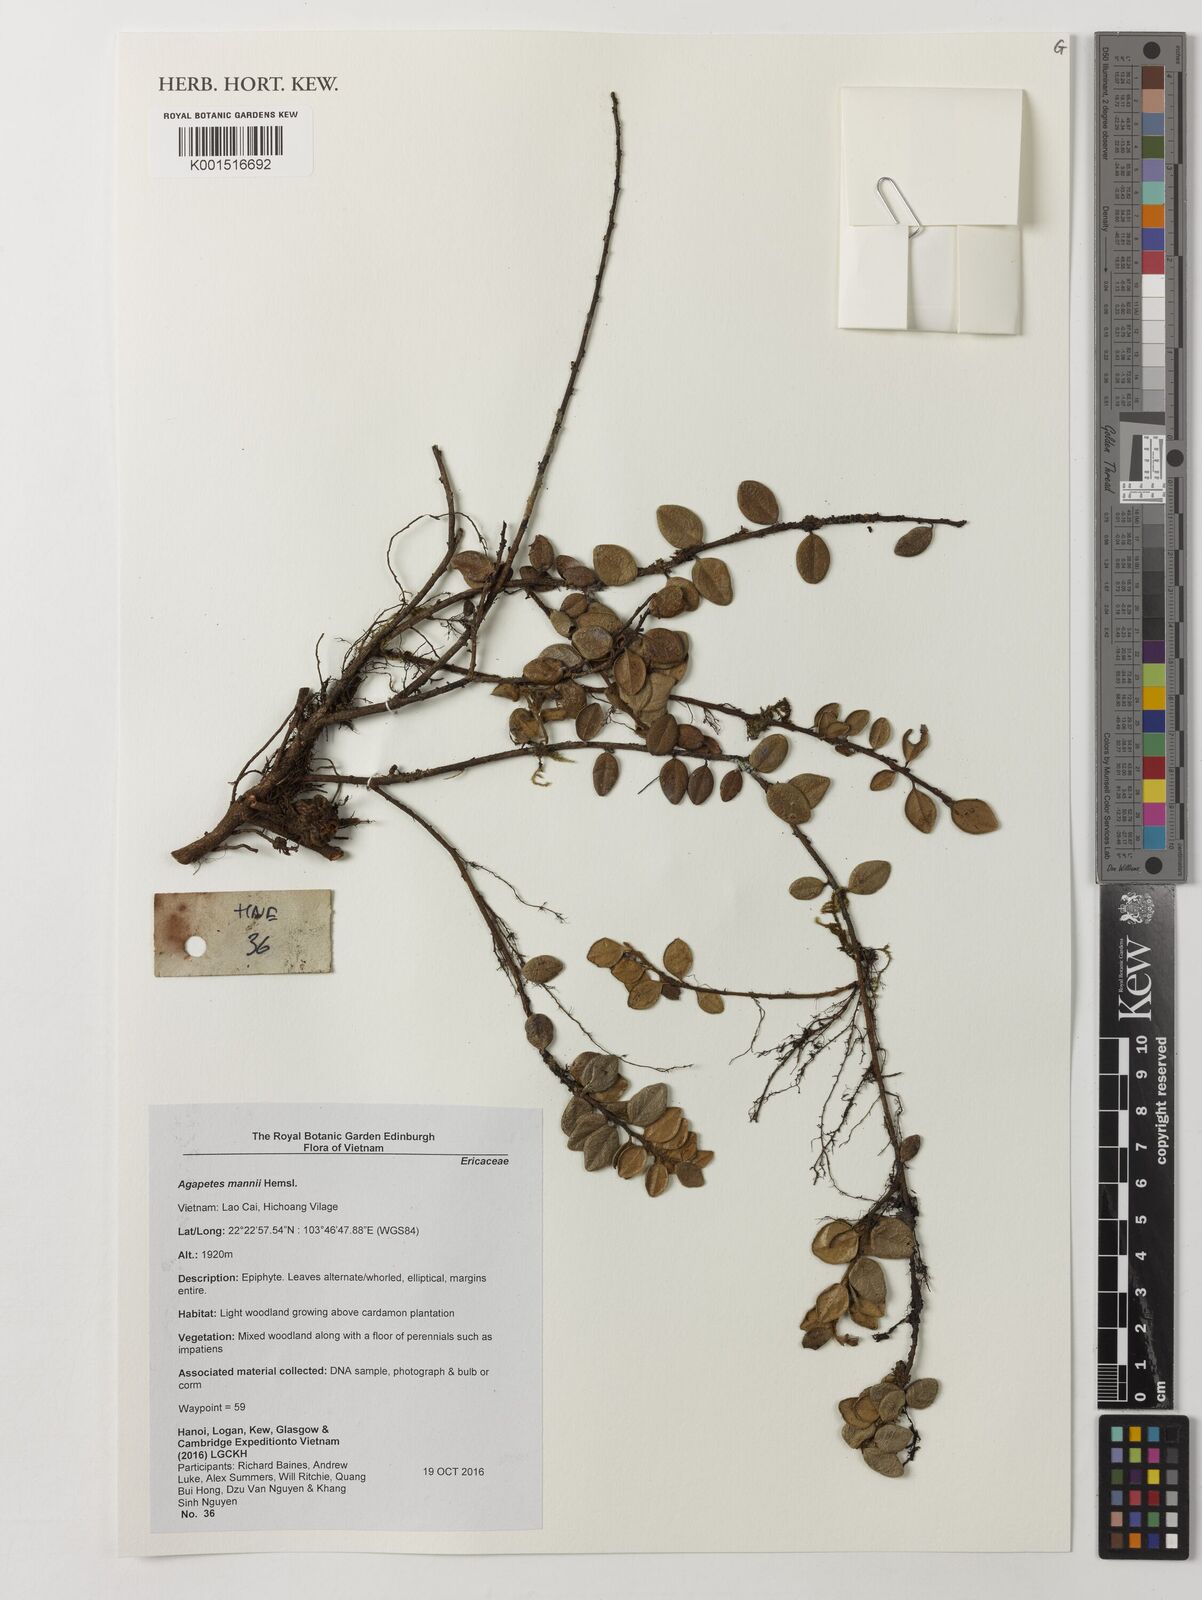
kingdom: Plantae
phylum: Tracheophyta
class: Magnoliopsida
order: Ericales
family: Ericaceae
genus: Agapetes
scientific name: Agapetes mannii
